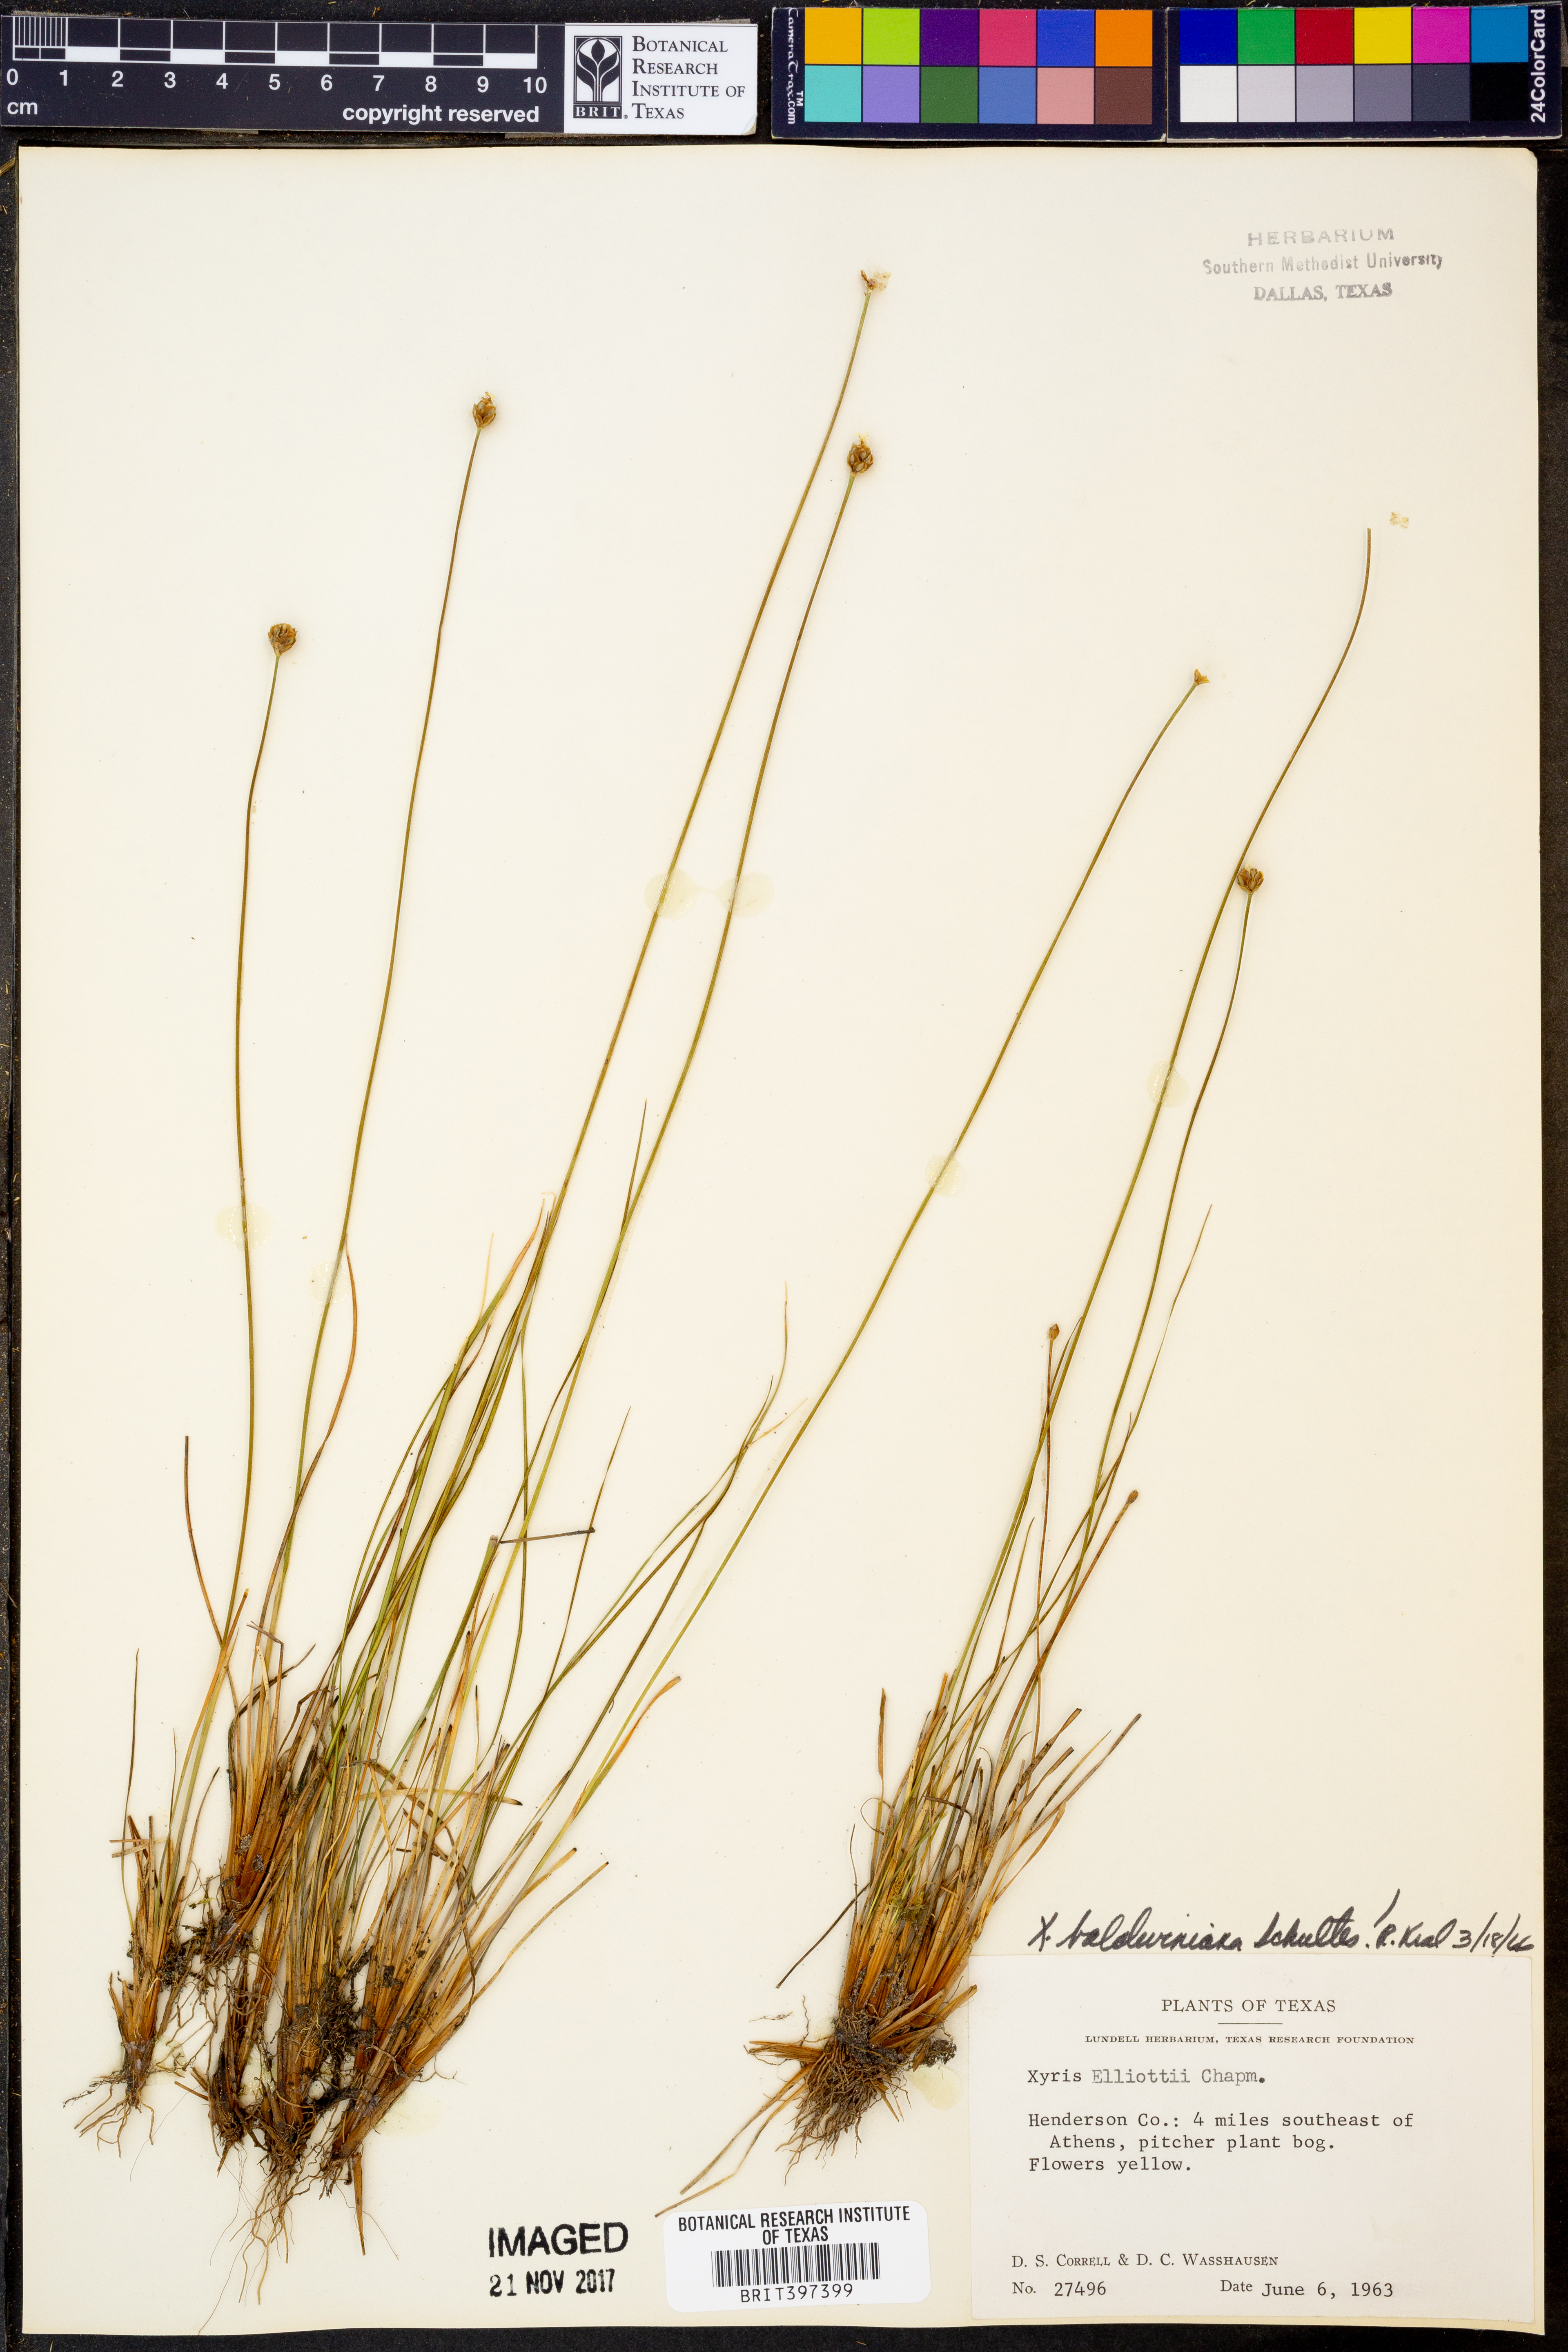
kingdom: Plantae
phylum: Tracheophyta
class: Liliopsida
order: Poales
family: Xyridaceae
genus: Xyris
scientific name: Xyris baldwiniana
